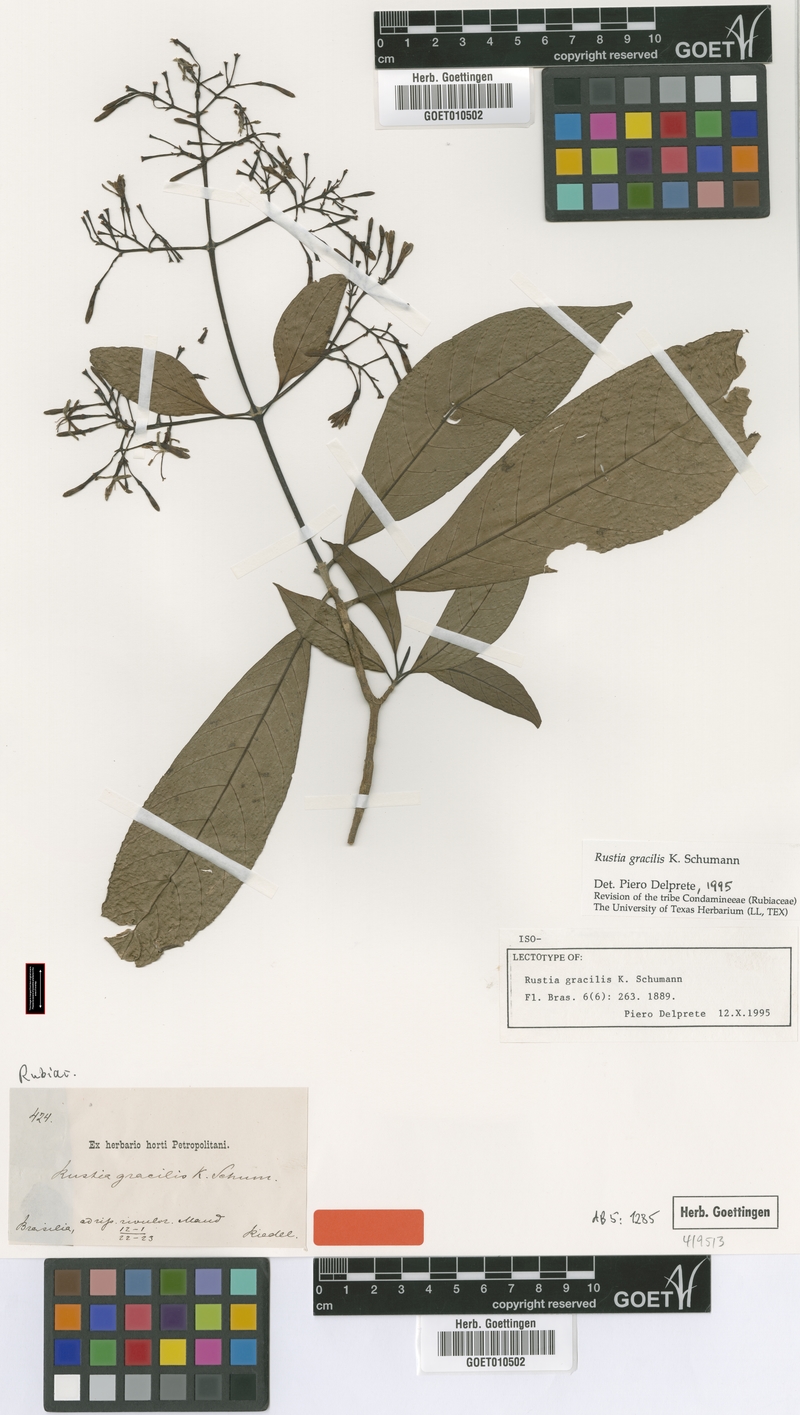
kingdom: Plantae
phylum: Tracheophyta
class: Magnoliopsida
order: Gentianales
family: Rubiaceae
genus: Rustia
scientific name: Rustia gracilis
